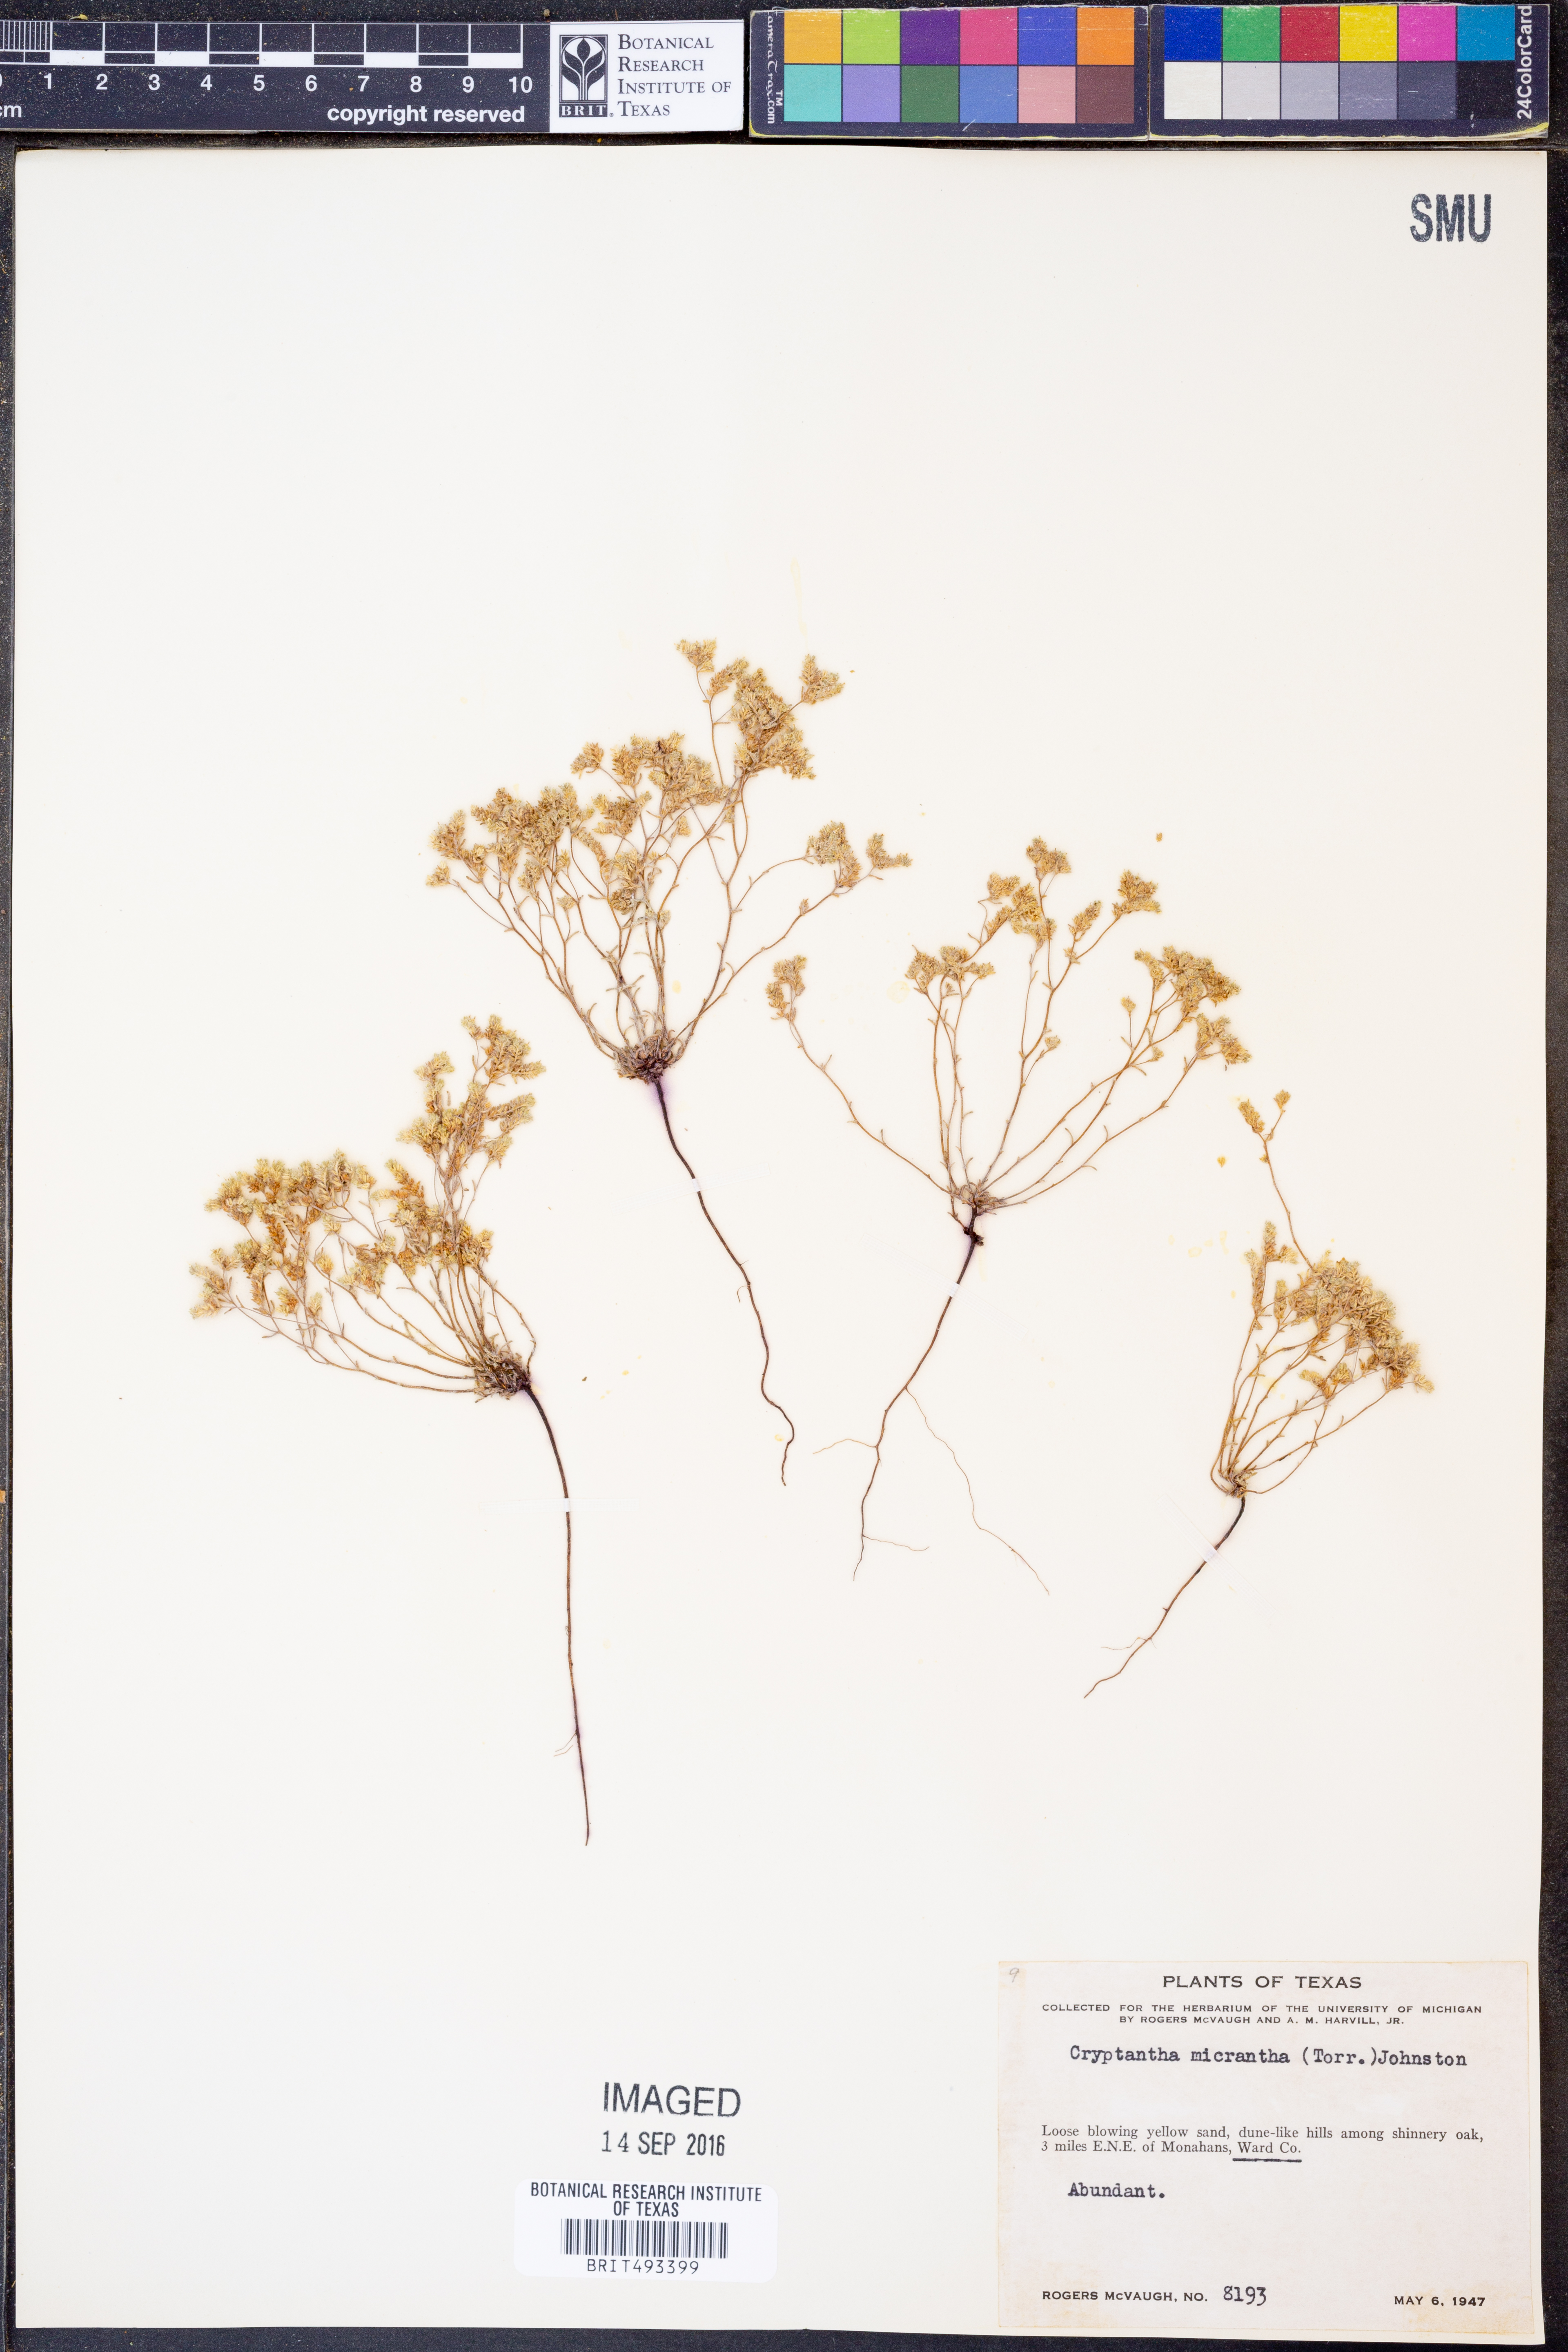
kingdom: Plantae
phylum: Tracheophyta
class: Magnoliopsida
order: Boraginales
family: Boraginaceae
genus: Eremocarya
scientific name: Eremocarya micrantha
